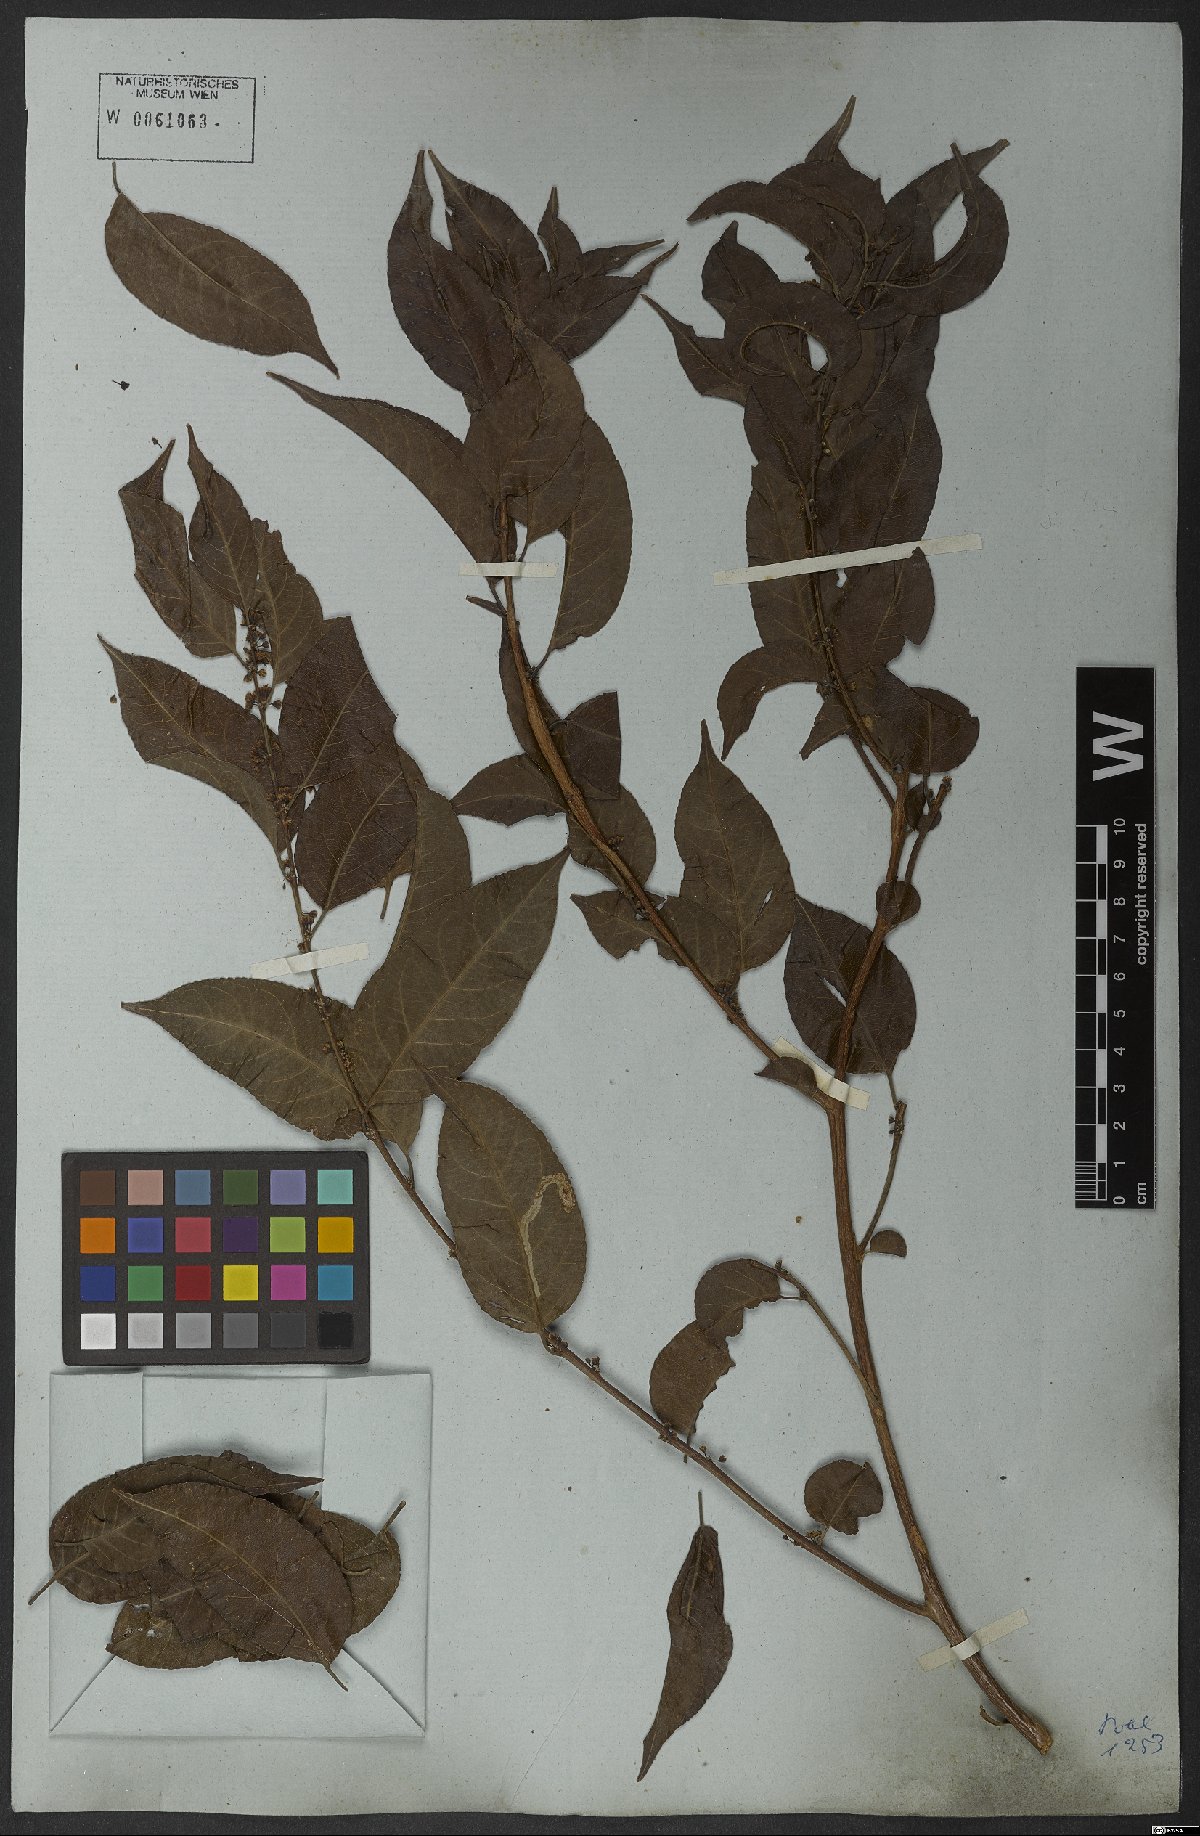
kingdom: Plantae
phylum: Tracheophyta
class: Magnoliopsida
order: Malpighiales
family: Salicaceae
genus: Casearia
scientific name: Casearia sylvestris
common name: Wild sage
